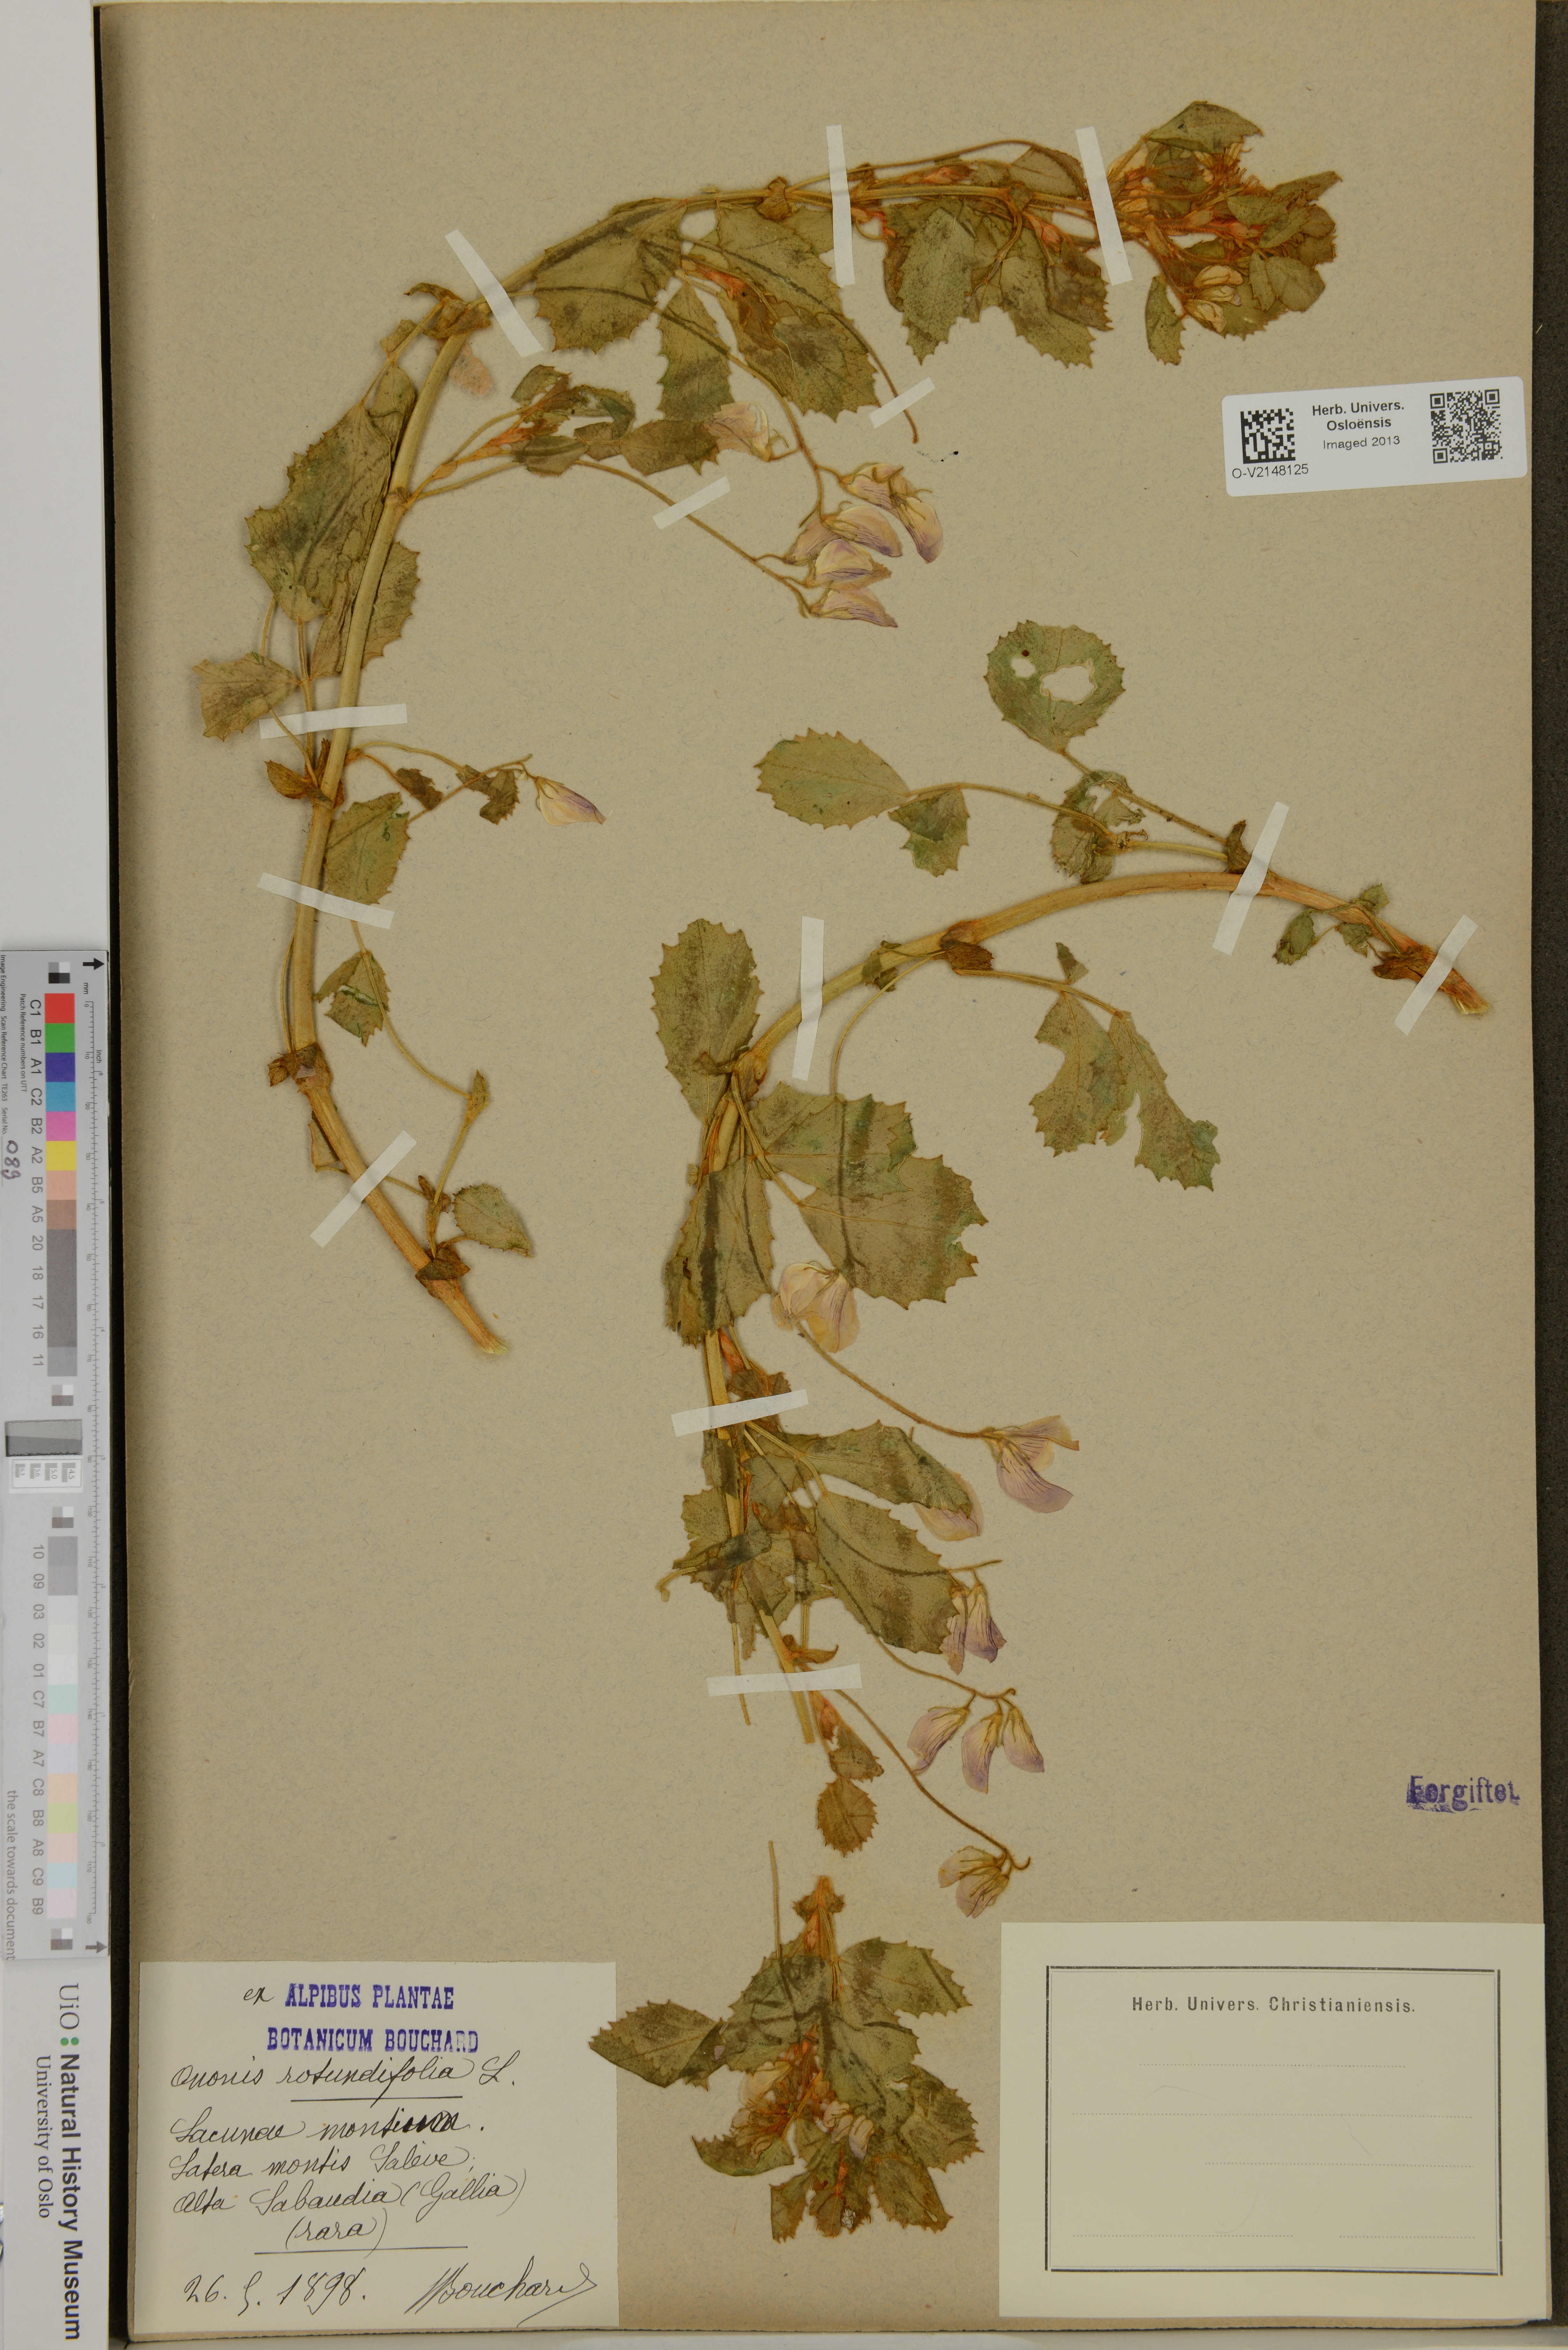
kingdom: Plantae
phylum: Tracheophyta
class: Magnoliopsida
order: Fabales
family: Fabaceae
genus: Ononis
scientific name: Ononis rotundifolia
